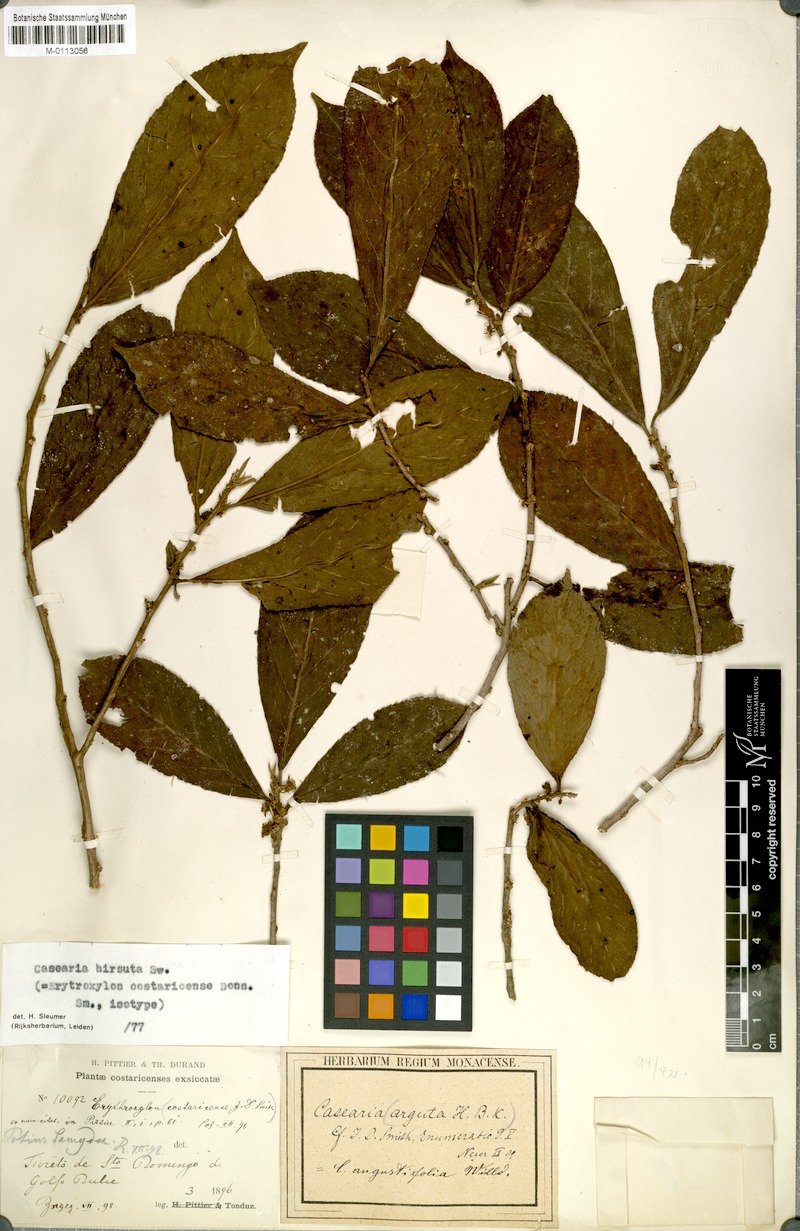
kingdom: Plantae
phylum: Tracheophyta
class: Magnoliopsida
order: Malpighiales
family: Salicaceae
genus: Casearia
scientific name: Casearia hirsuta
